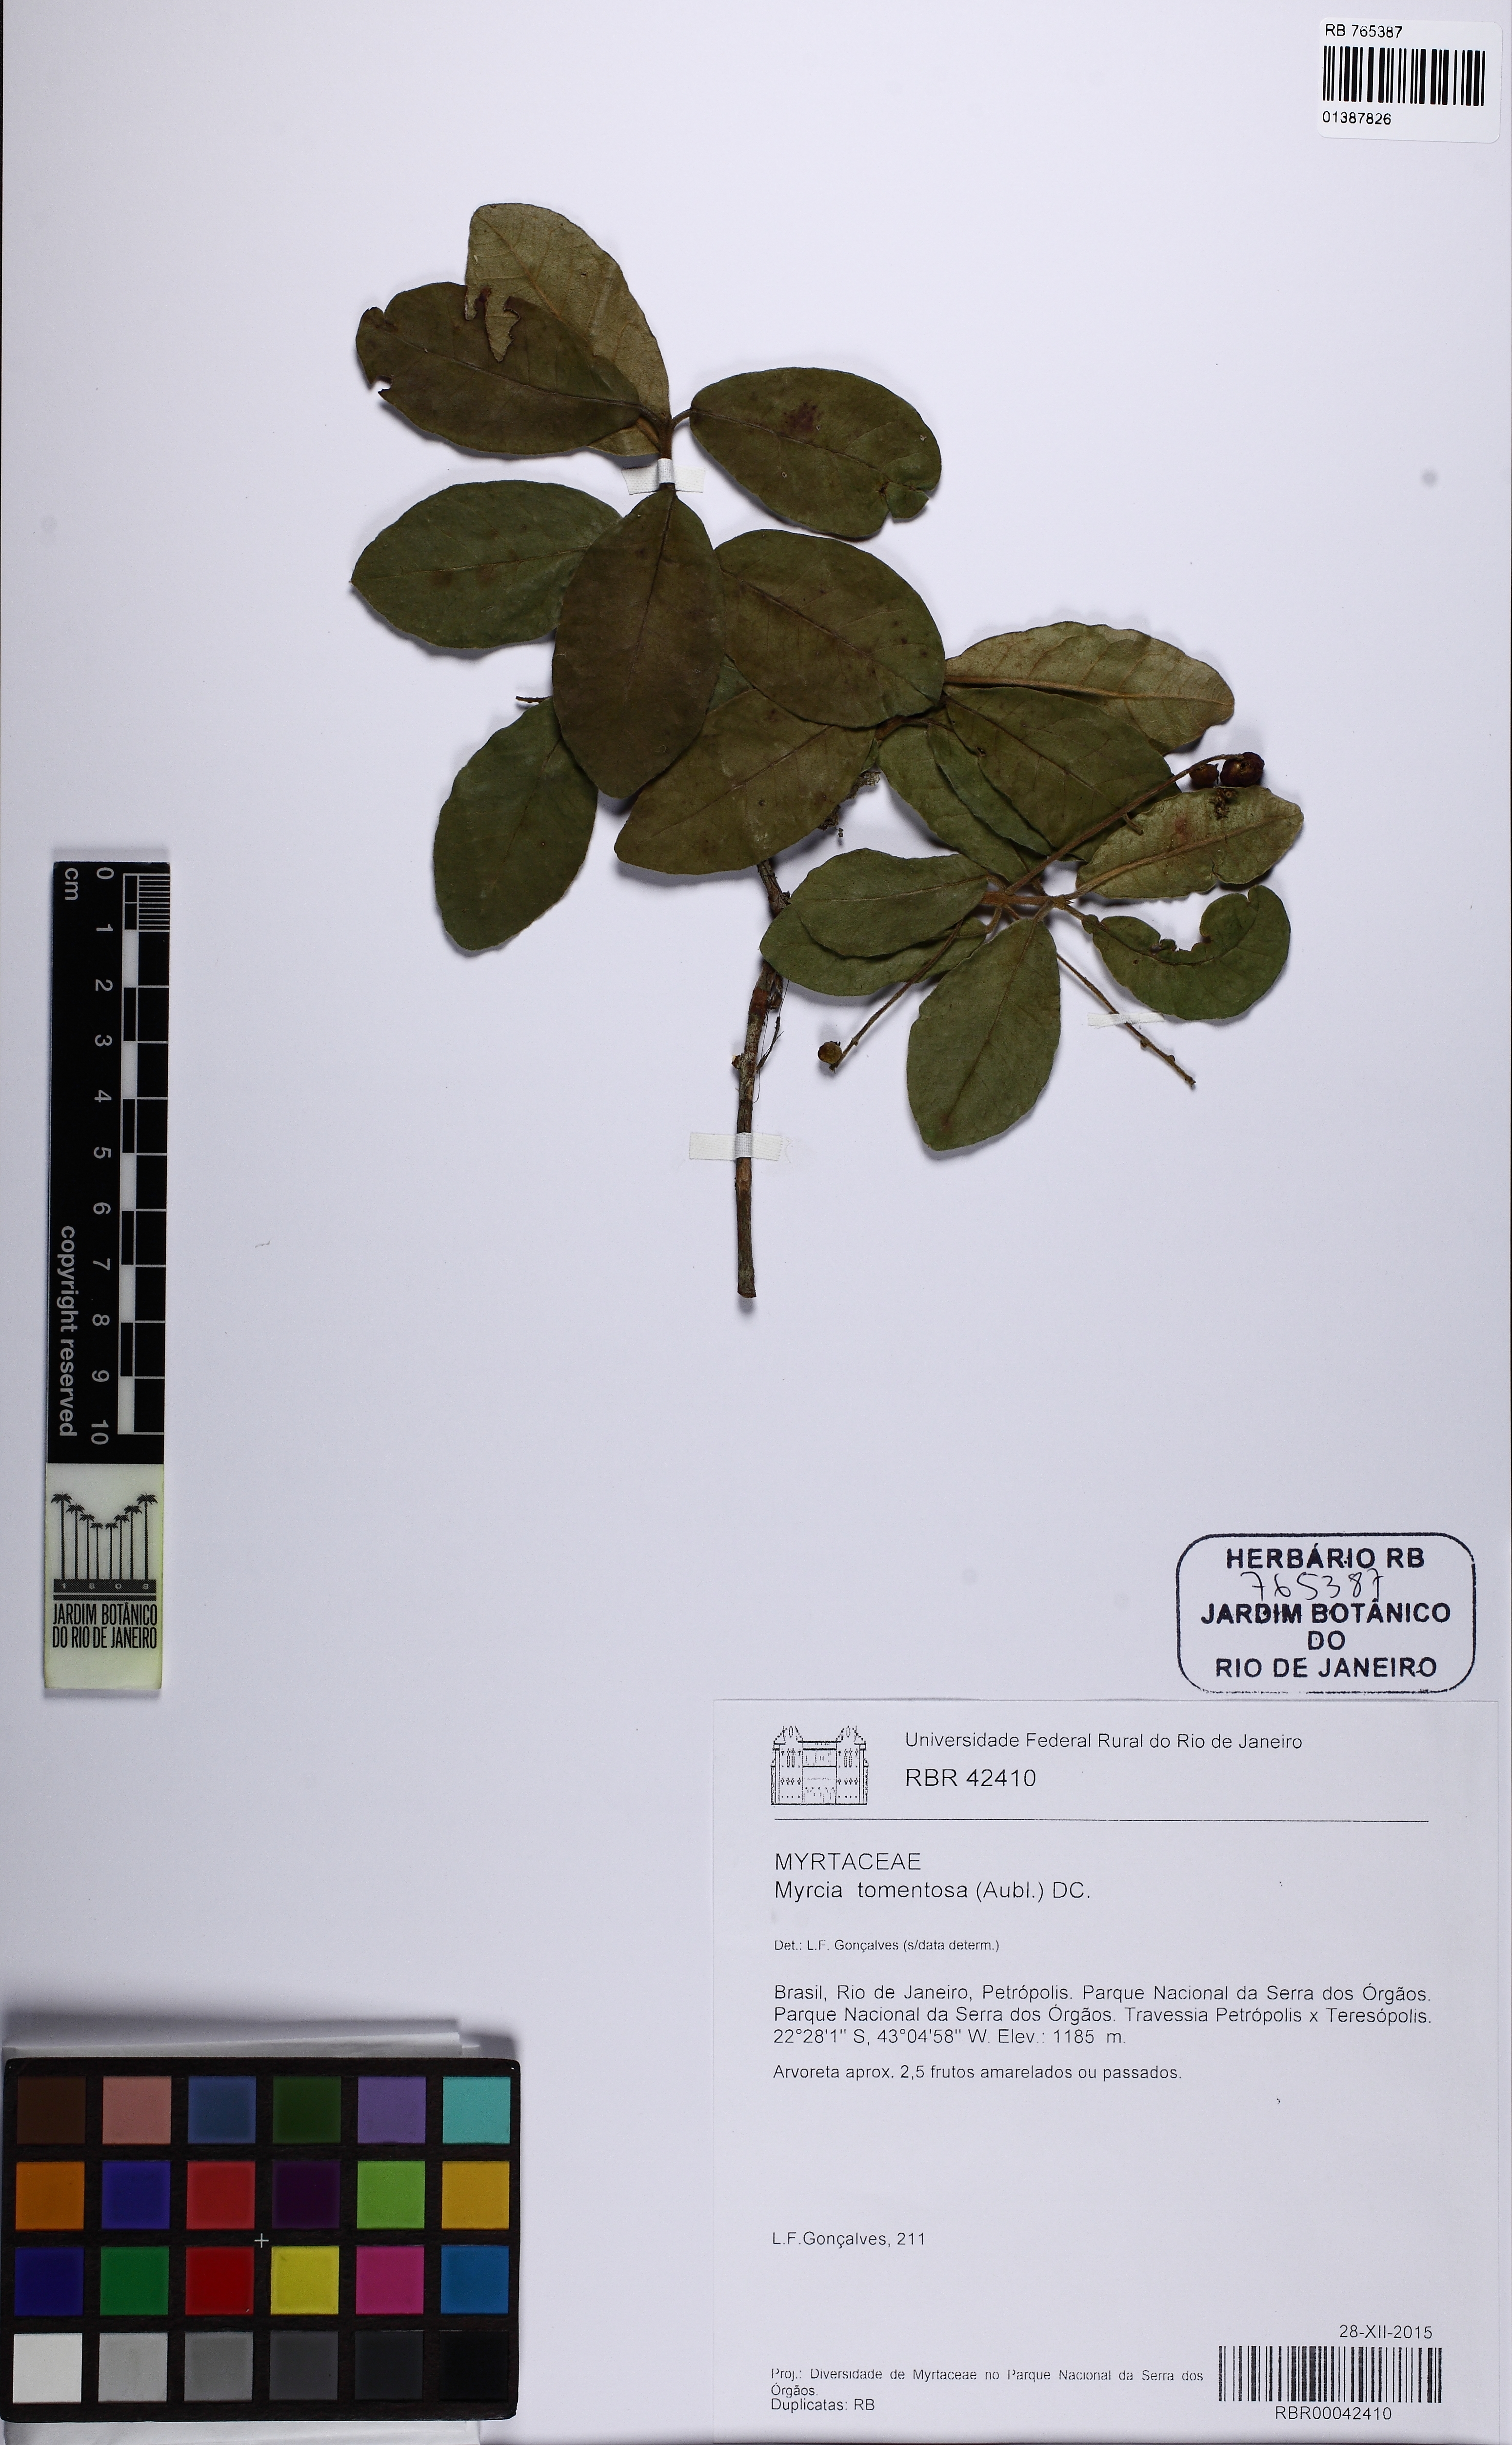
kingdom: Plantae
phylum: Tracheophyta
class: Magnoliopsida
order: Myrtales
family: Myrtaceae
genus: Myrcia
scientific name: Myrcia tomentosa
